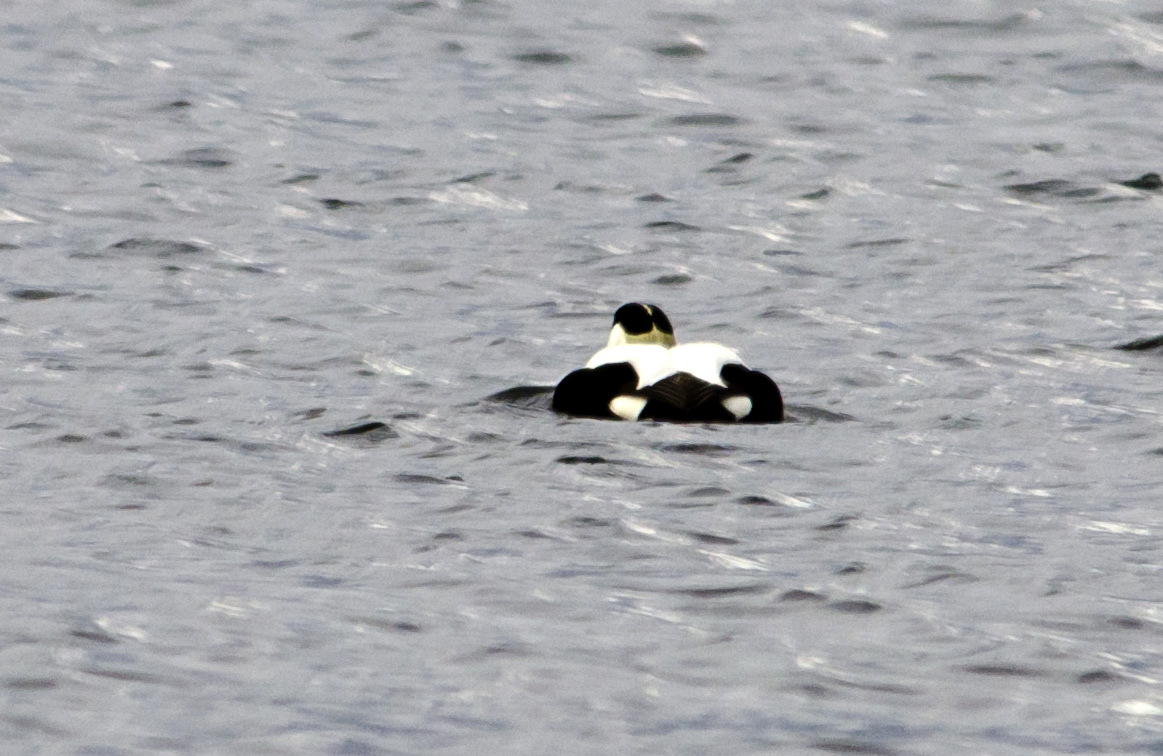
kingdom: Animalia
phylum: Chordata
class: Aves
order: Anseriformes
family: Anatidae
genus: Somateria
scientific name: Somateria mollissima
